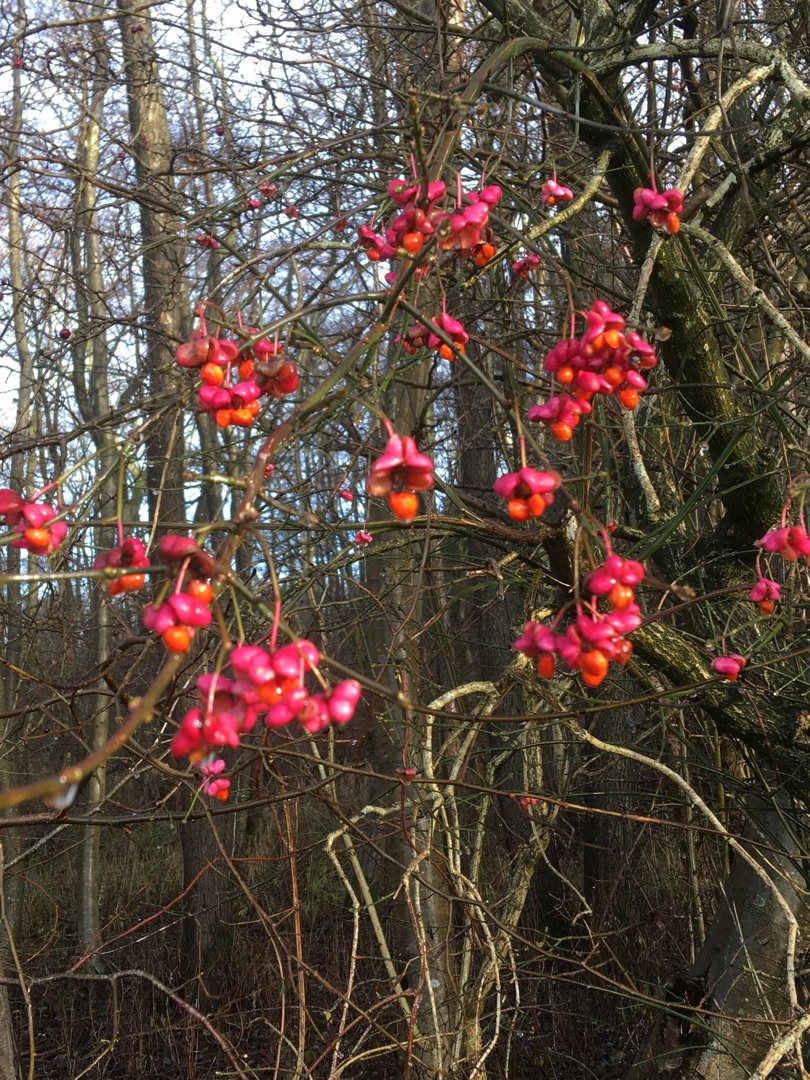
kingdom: Plantae
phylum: Tracheophyta
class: Magnoliopsida
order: Celastrales
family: Celastraceae
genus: Euonymus
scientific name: Euonymus europaeus
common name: Benved
